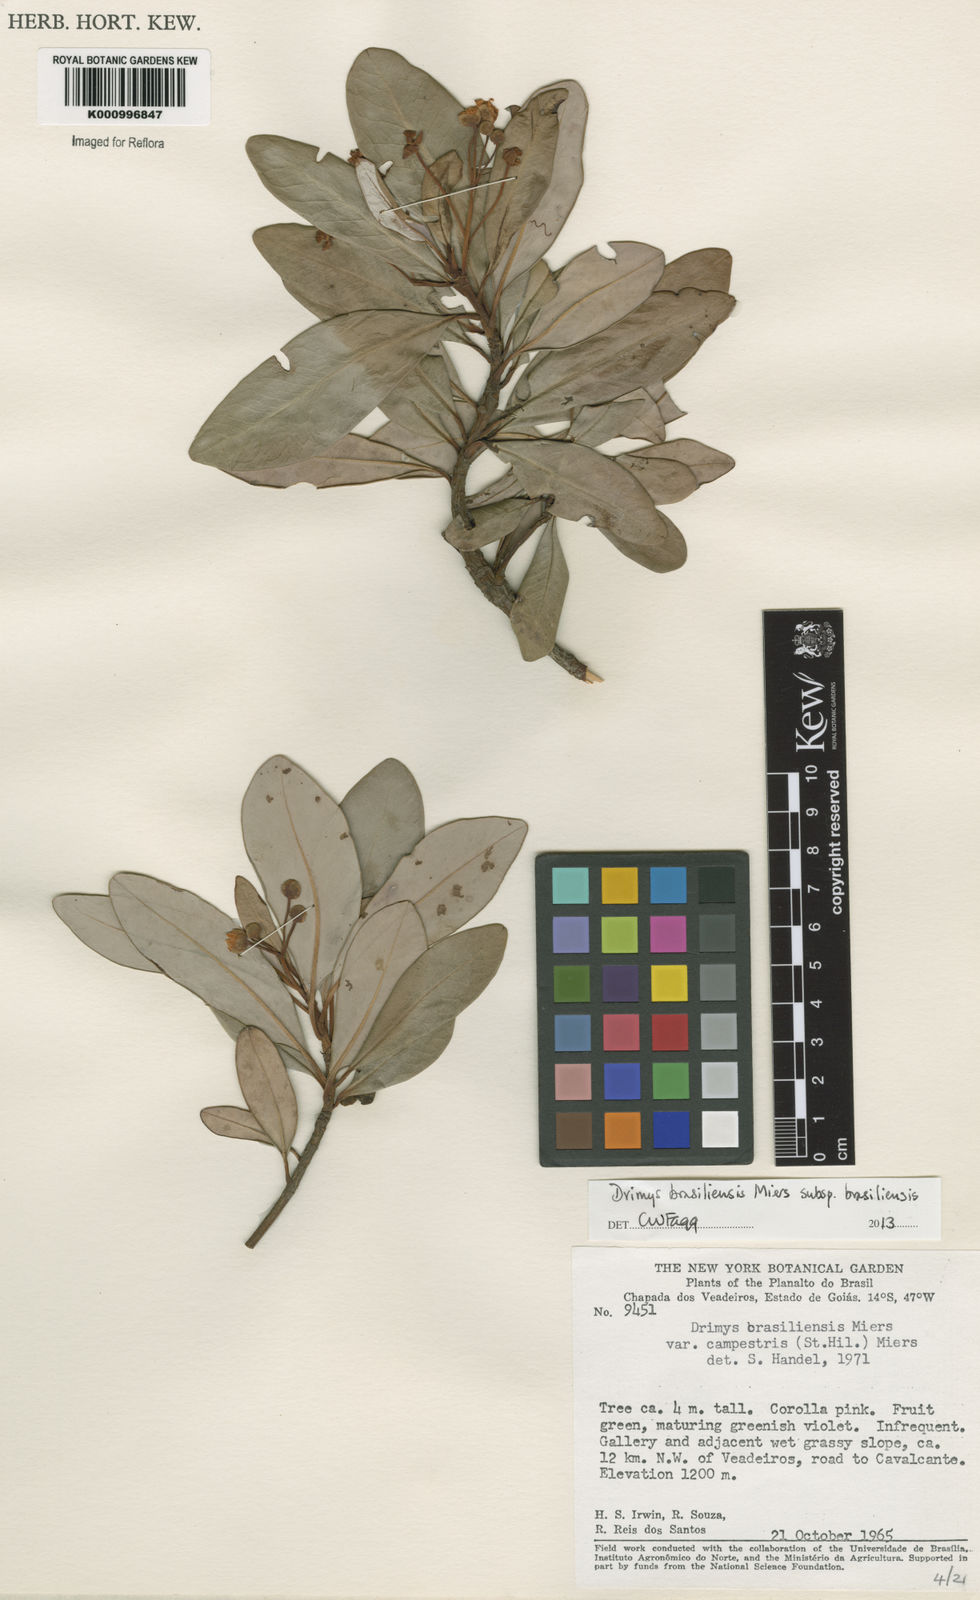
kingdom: Plantae
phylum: Tracheophyta
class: Magnoliopsida
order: Canellales
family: Winteraceae
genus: Drimys
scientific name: Drimys brasiliensis
